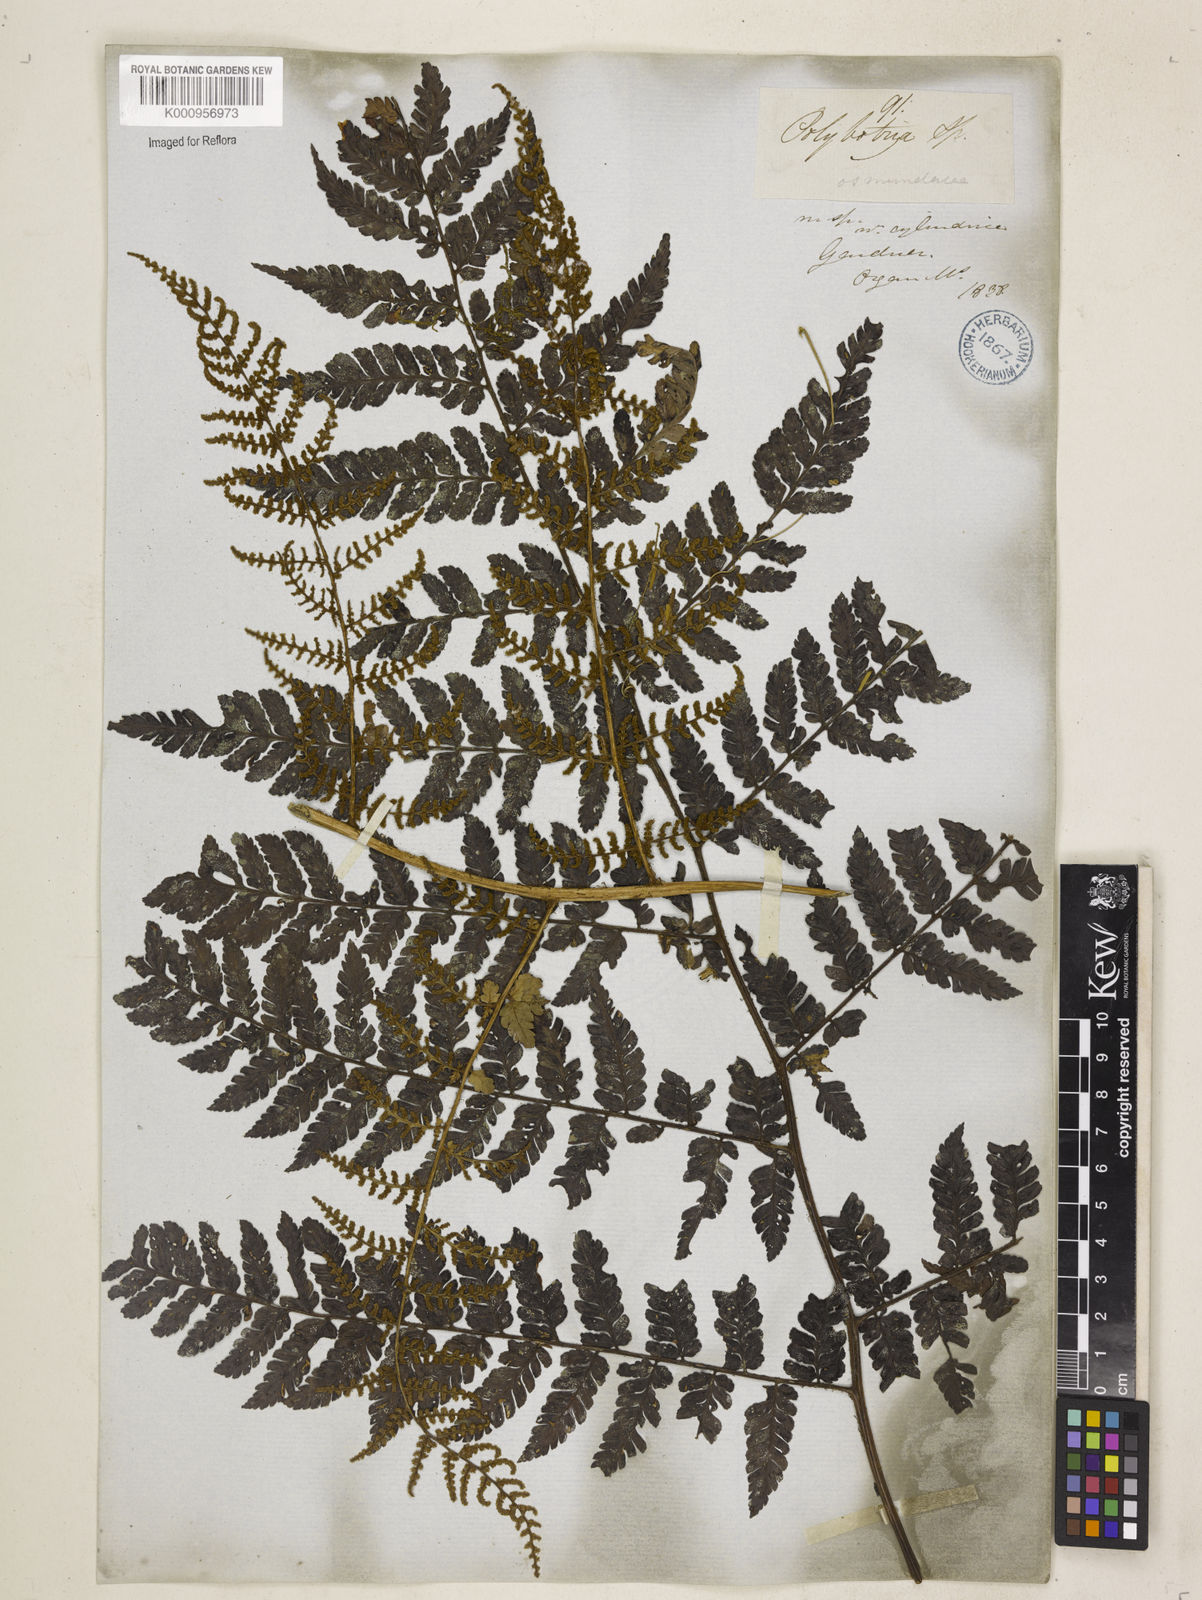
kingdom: Plantae
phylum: Tracheophyta
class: Polypodiopsida
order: Polypodiales
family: Dryopteridaceae
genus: Polybotrya
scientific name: Polybotrya osmundacea
